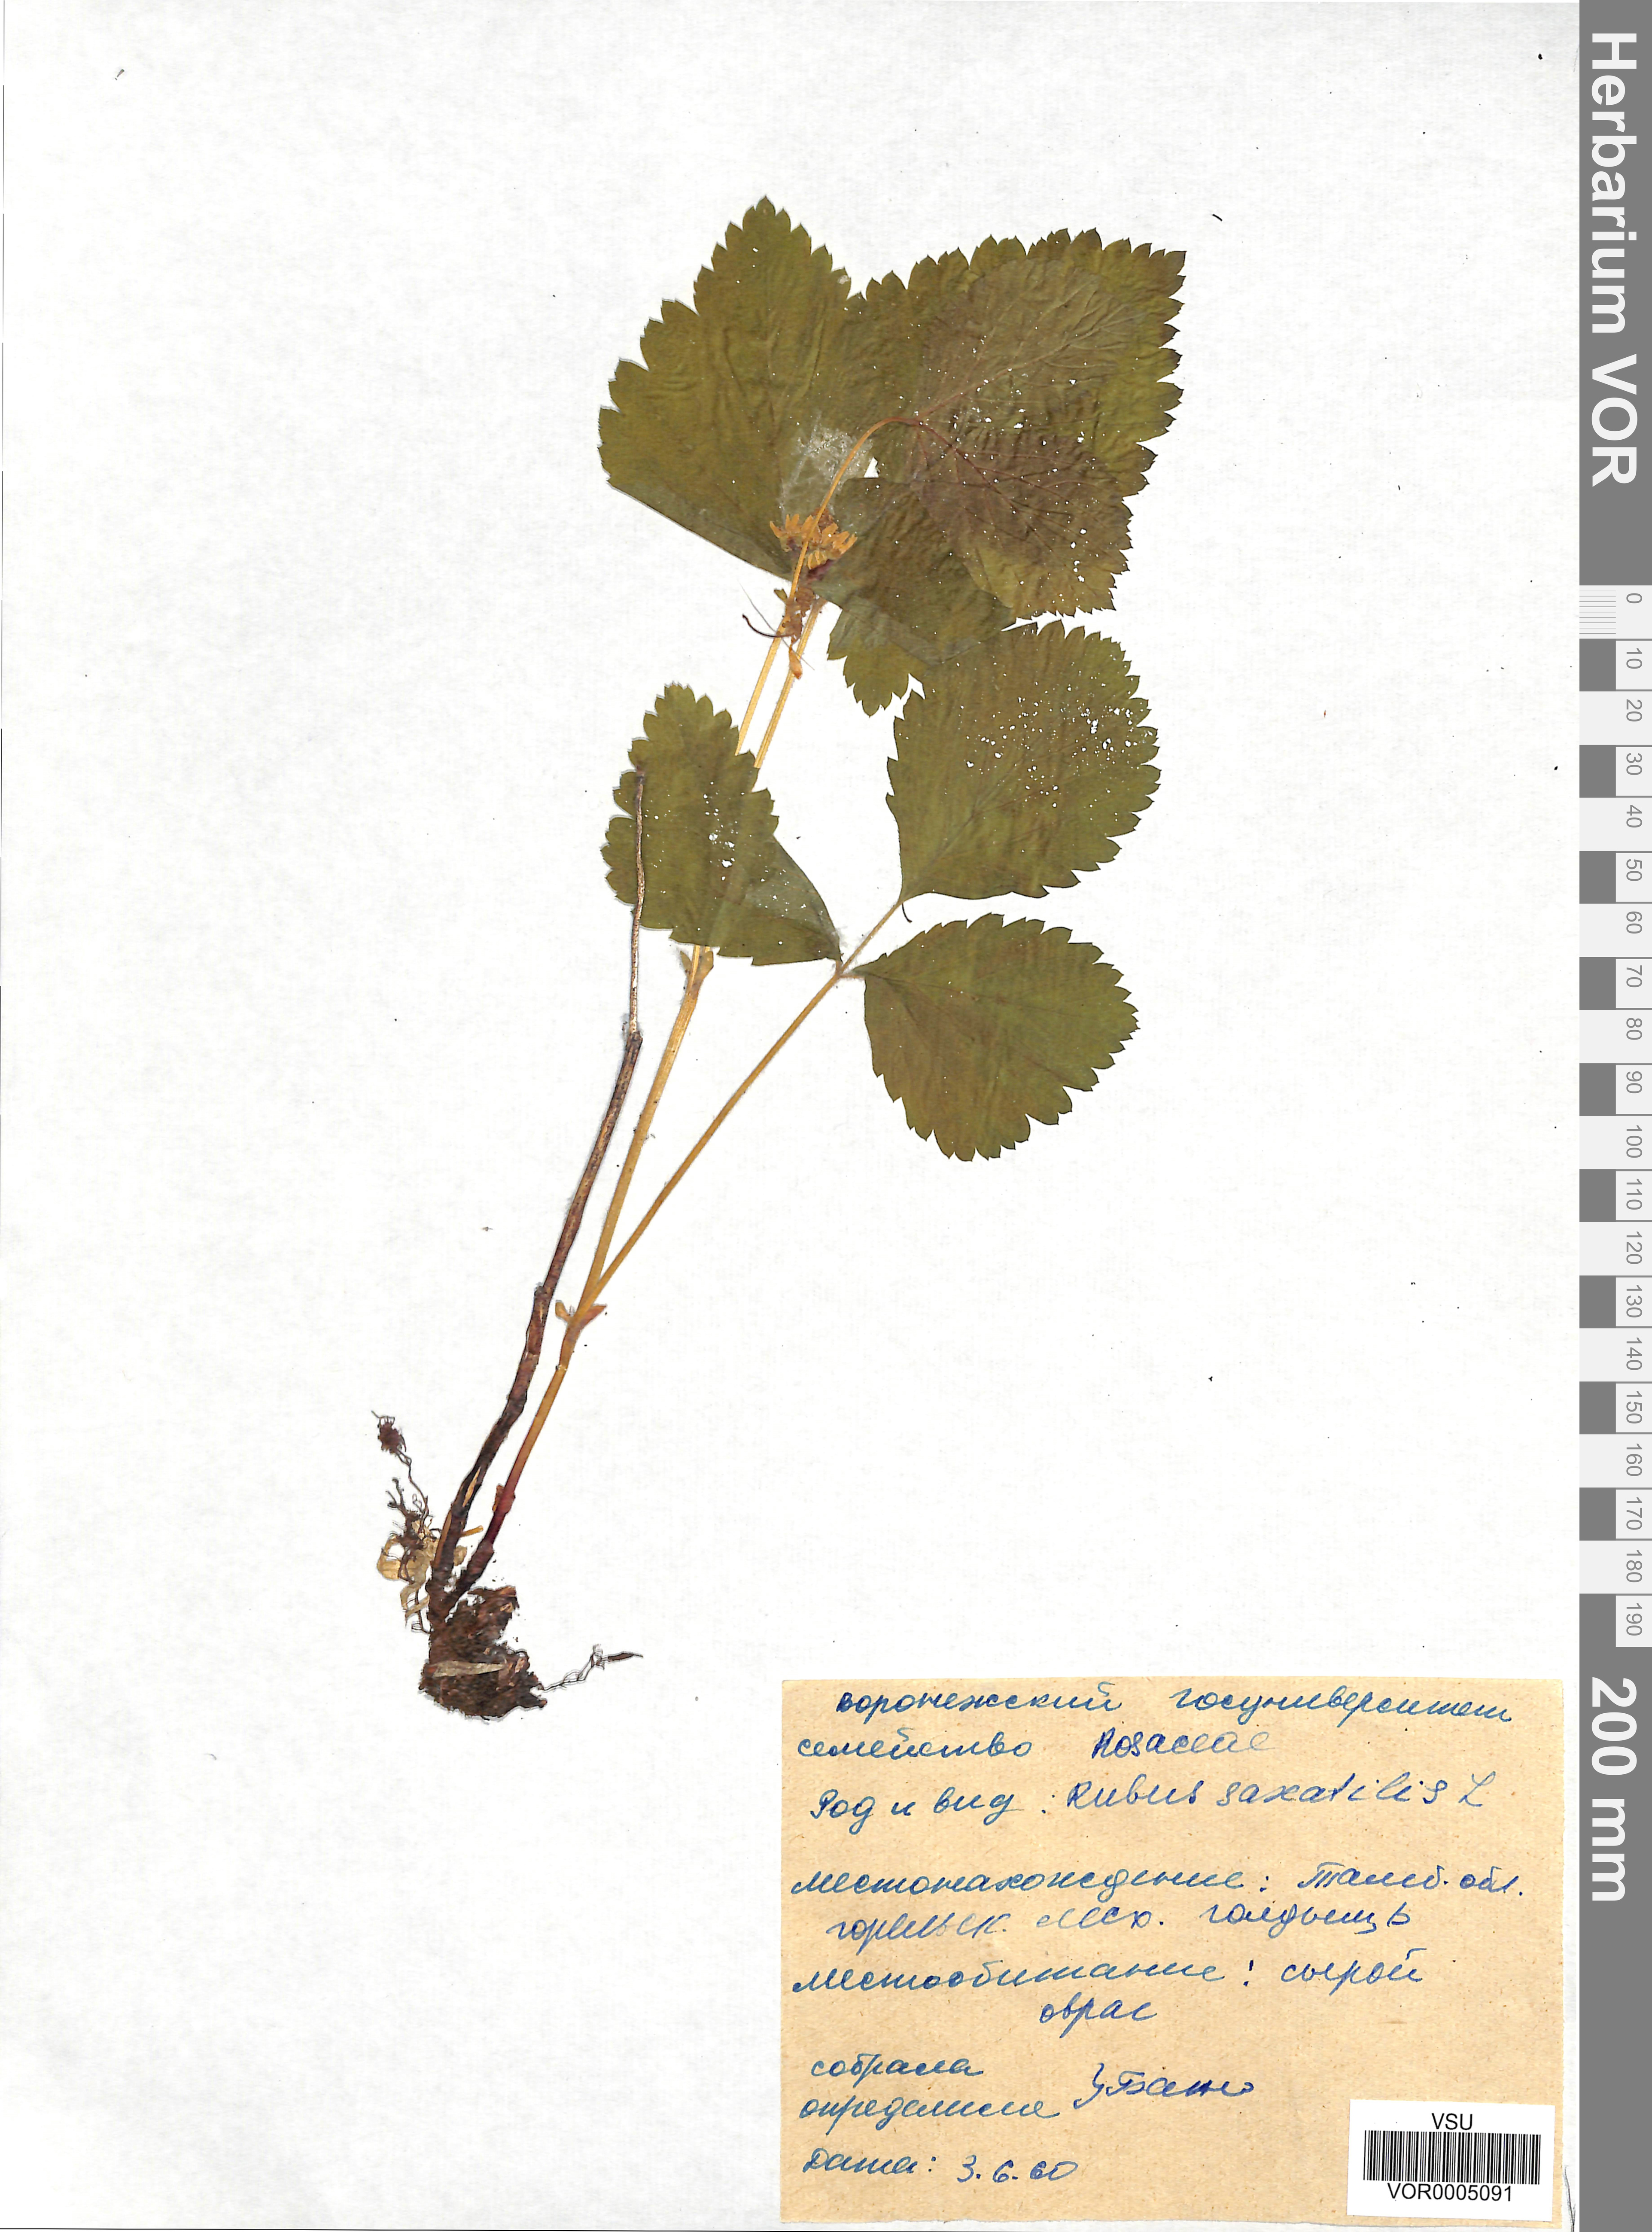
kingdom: Plantae
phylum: Tracheophyta
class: Magnoliopsida
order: Rosales
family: Rosaceae
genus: Rubus
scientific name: Rubus saxatilis
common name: Stone bramble
